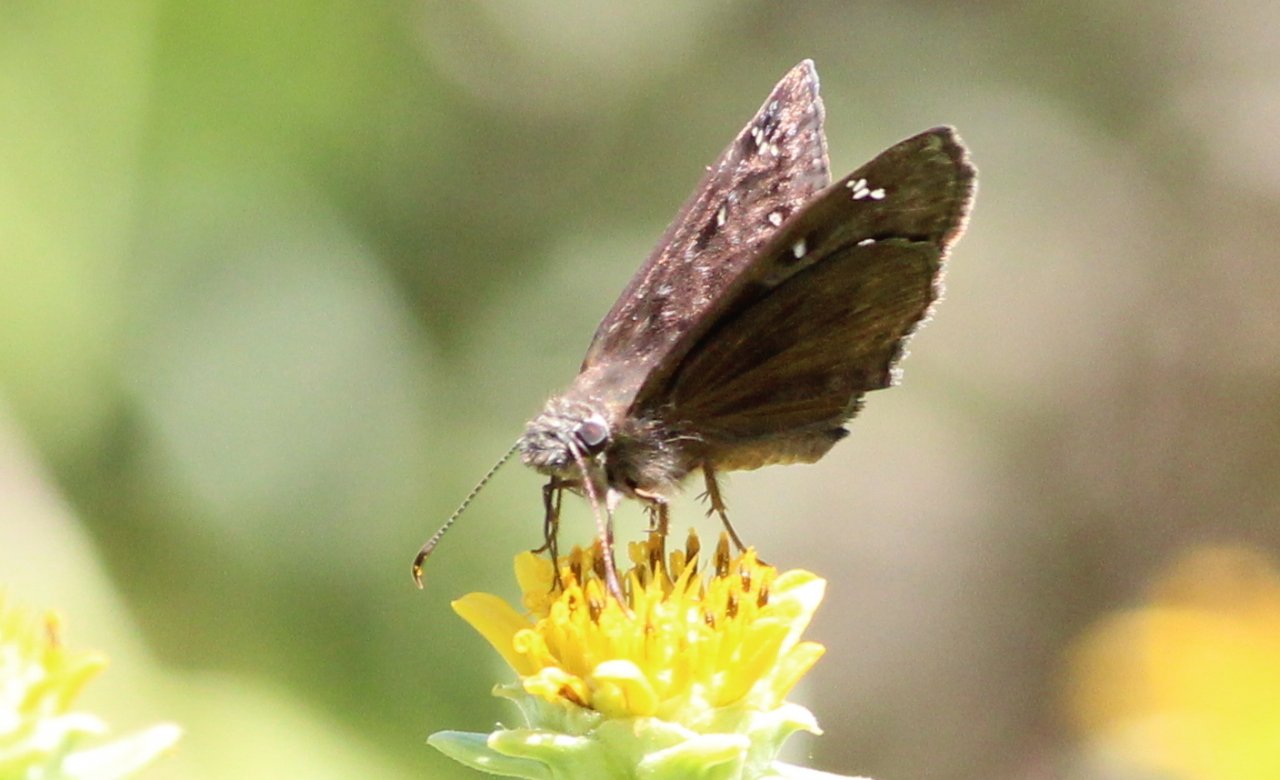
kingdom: Animalia
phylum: Arthropoda
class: Insecta
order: Lepidoptera
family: Hesperiidae
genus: Gesta
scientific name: Gesta
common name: Horace's Duskywing
